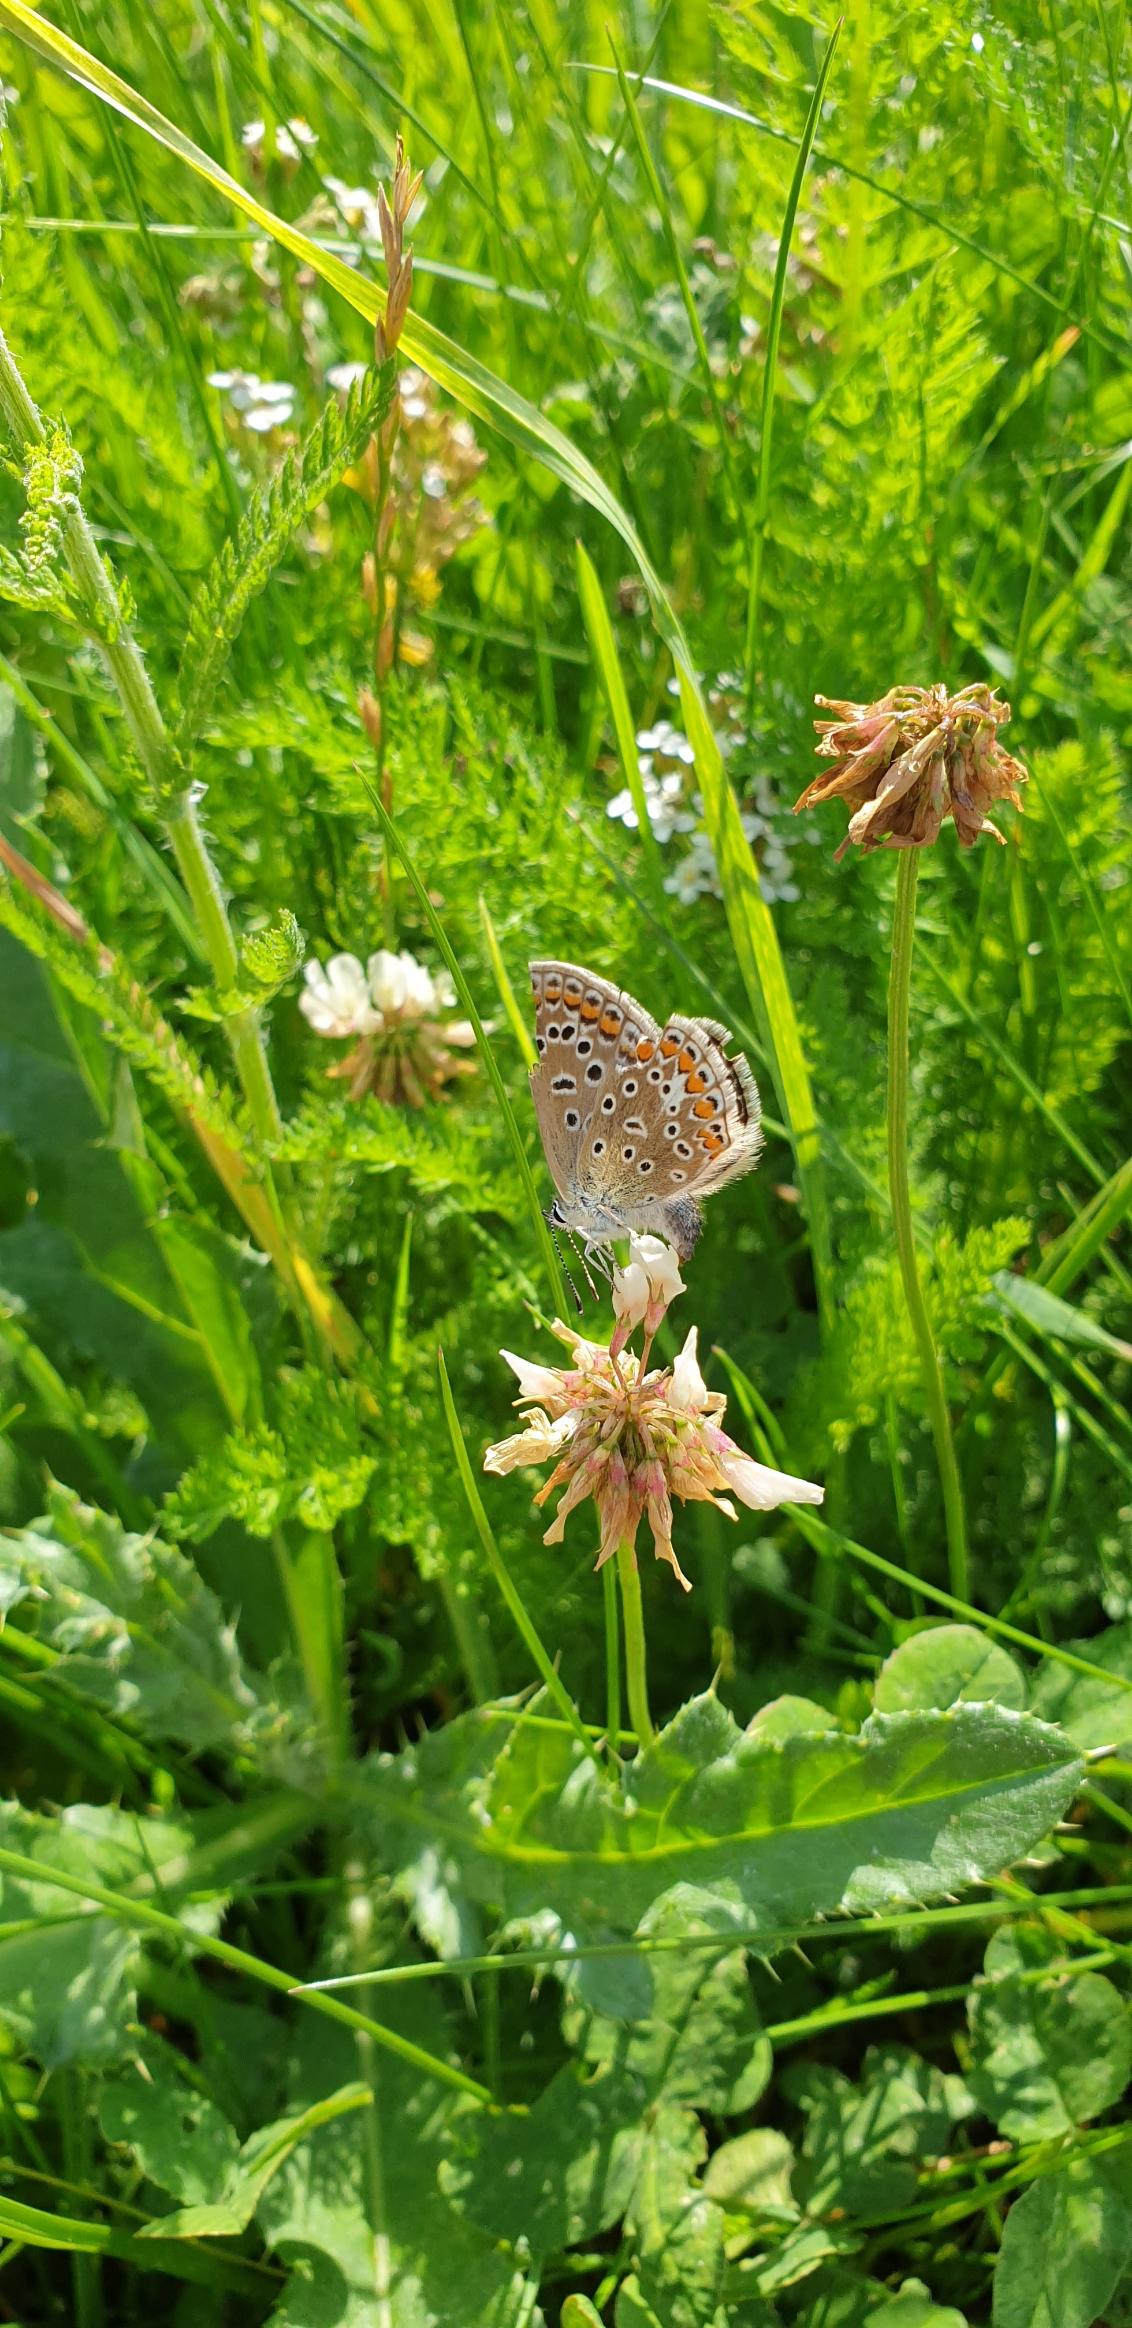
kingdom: Animalia
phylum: Arthropoda
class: Insecta
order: Lepidoptera
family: Lycaenidae
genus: Polyommatus
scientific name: Polyommatus icarus
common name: Almindelig blåfugl
